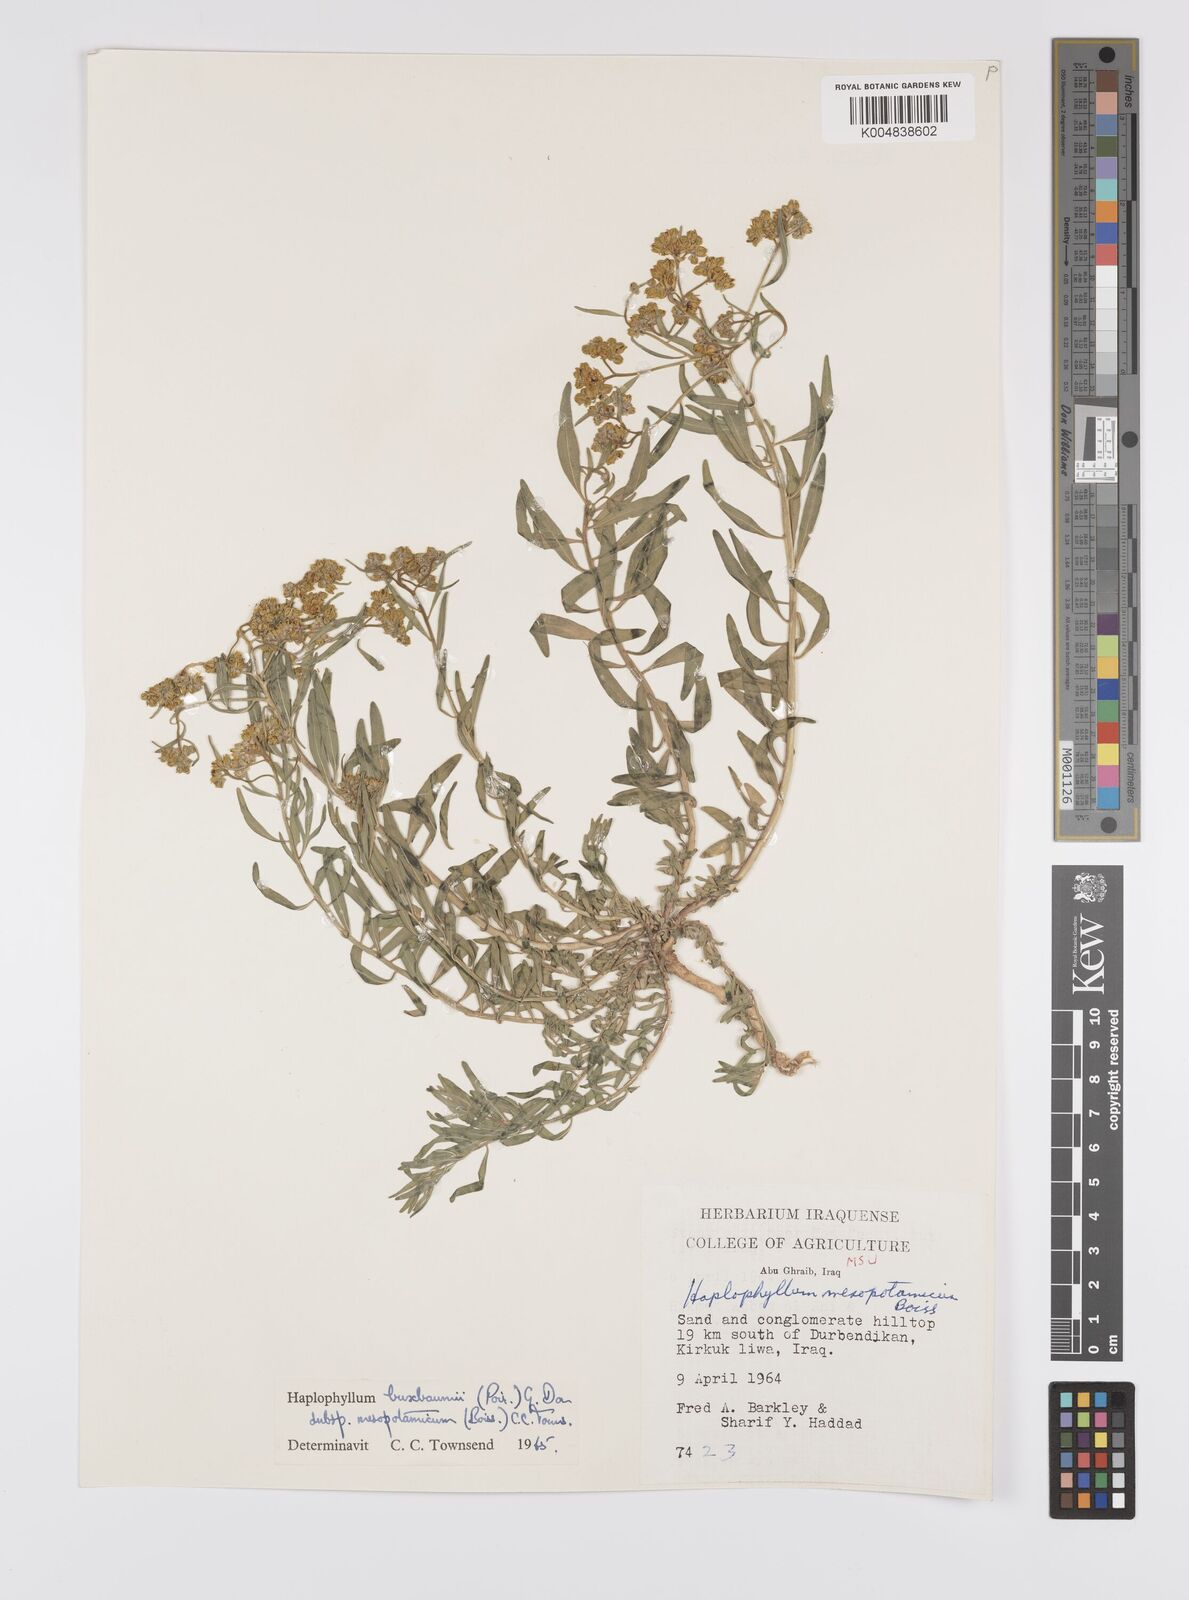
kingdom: Plantae
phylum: Tracheophyta
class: Magnoliopsida
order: Sapindales
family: Rutaceae
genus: Haplophyllum
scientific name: Haplophyllum buxbaumii
